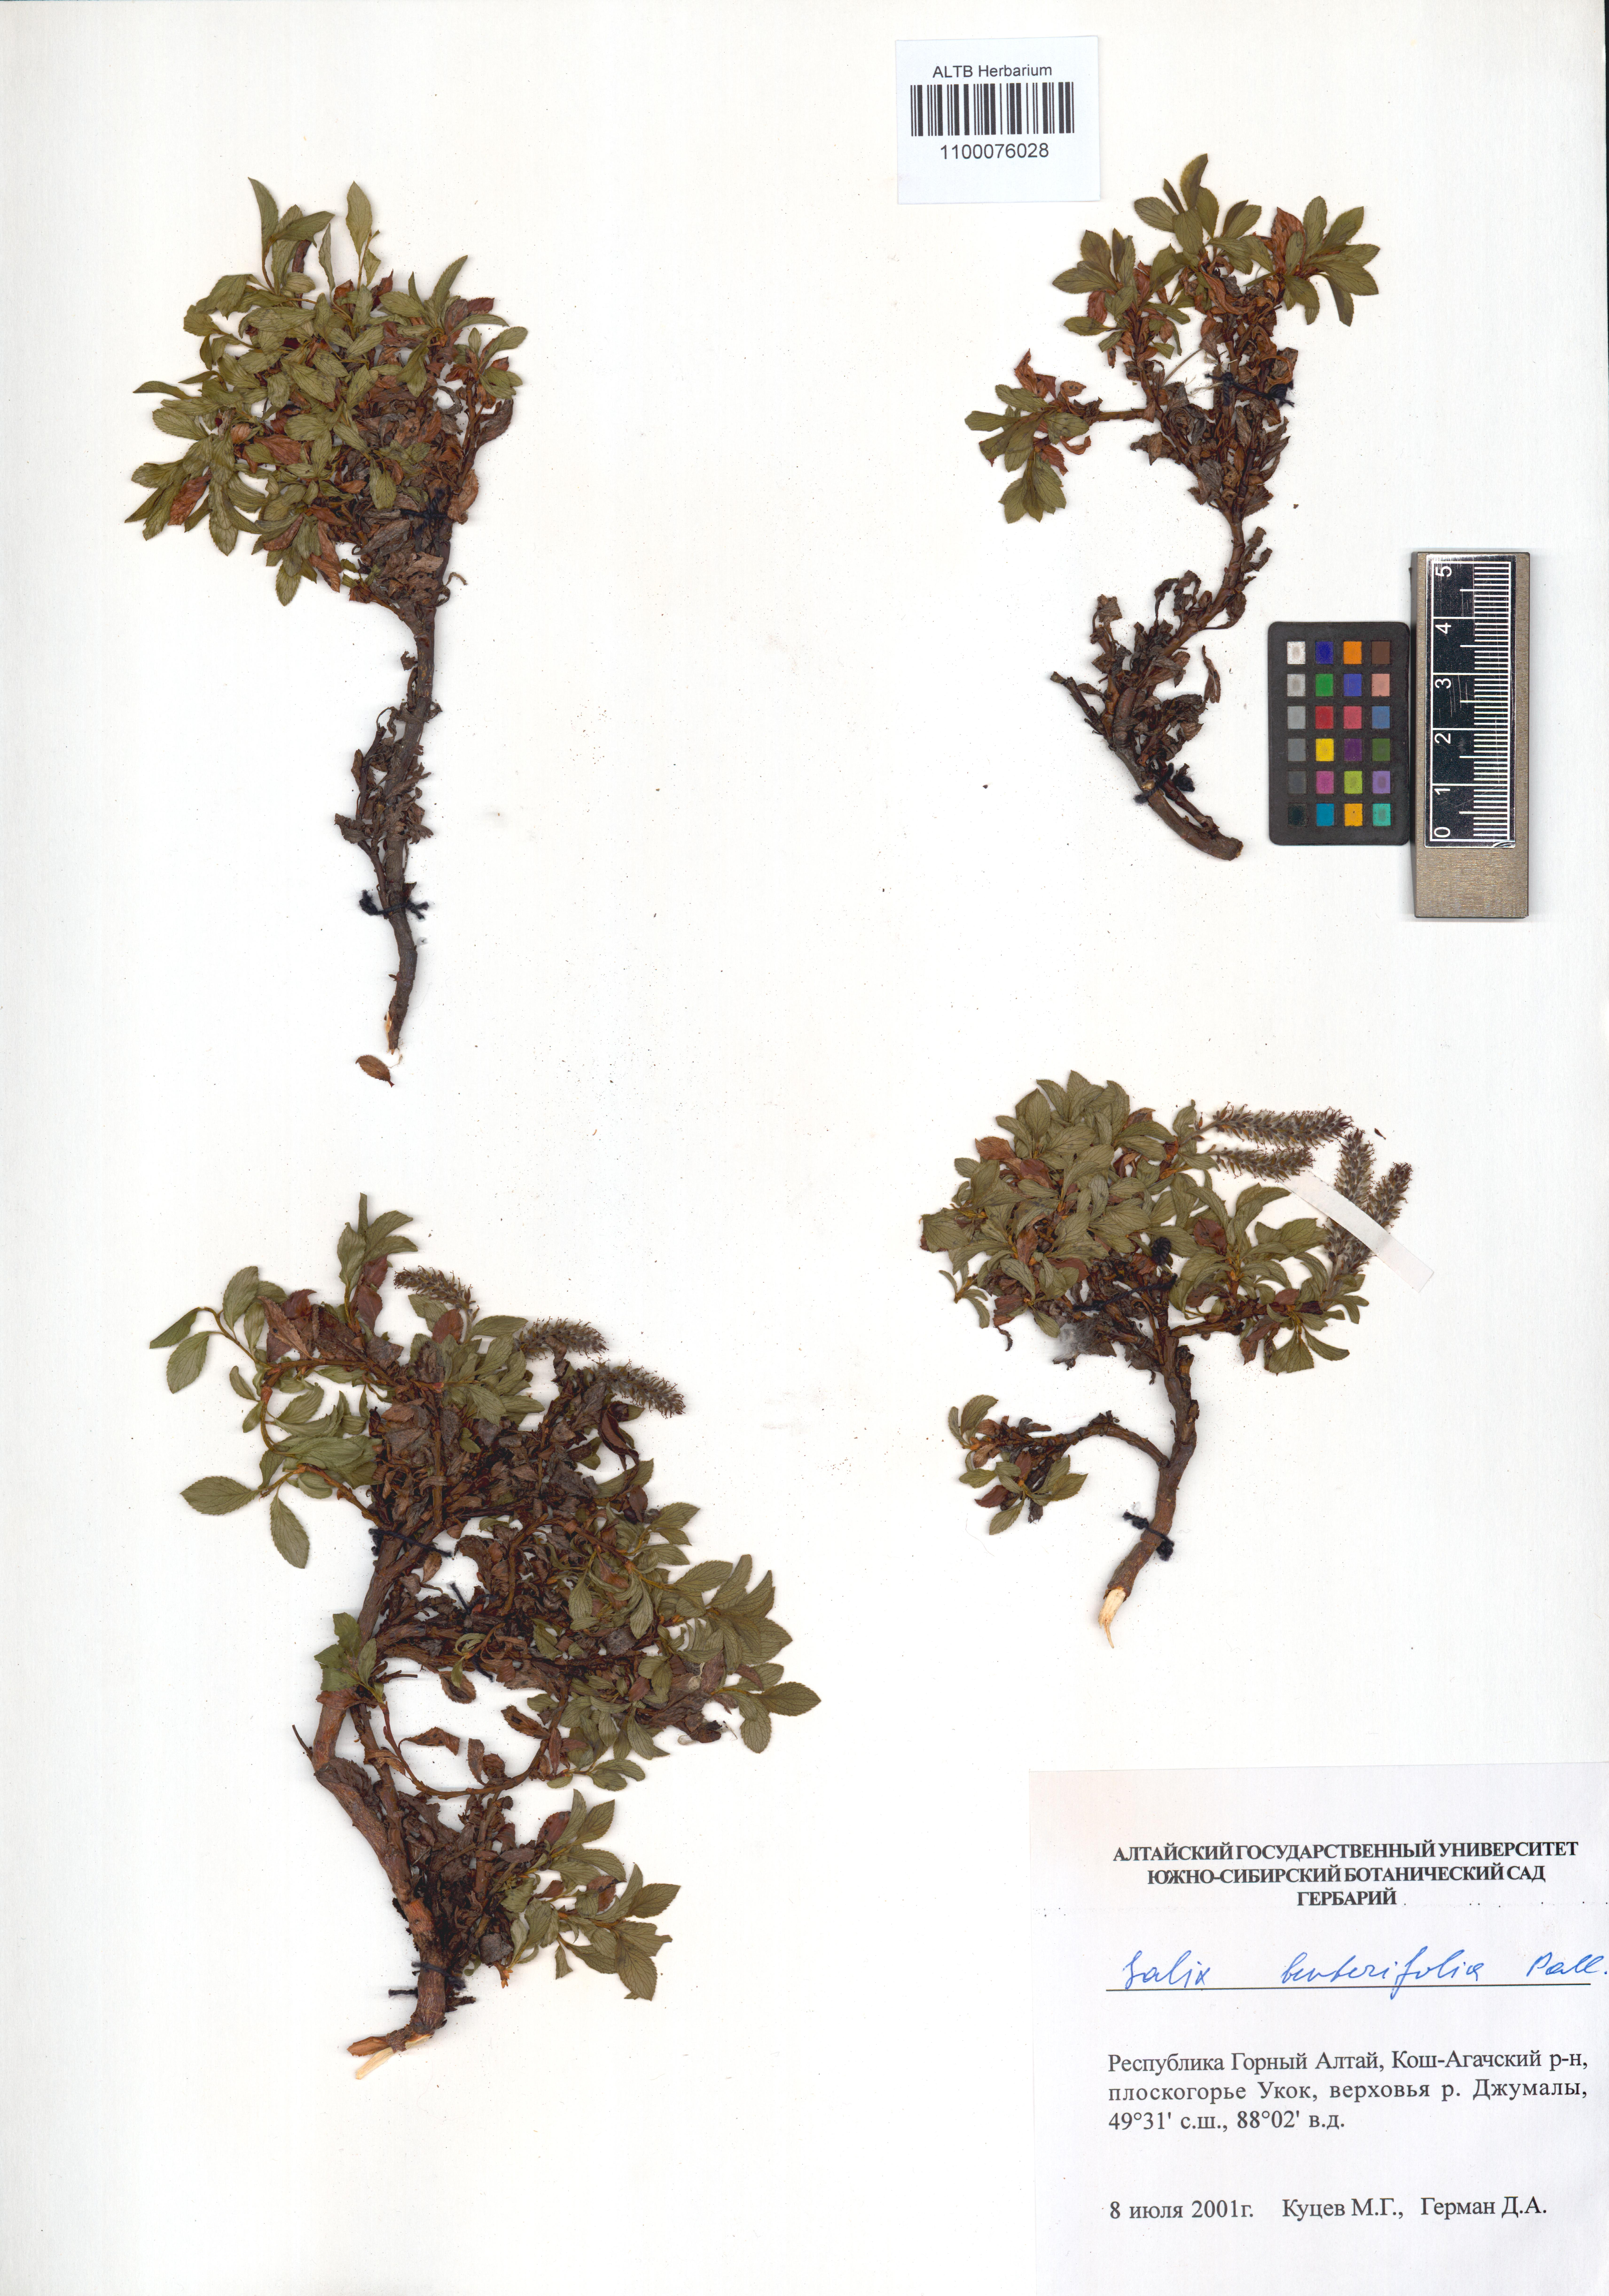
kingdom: Plantae
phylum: Tracheophyta
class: Magnoliopsida
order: Malpighiales
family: Salicaceae
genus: Salix
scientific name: Salix berberifolia
